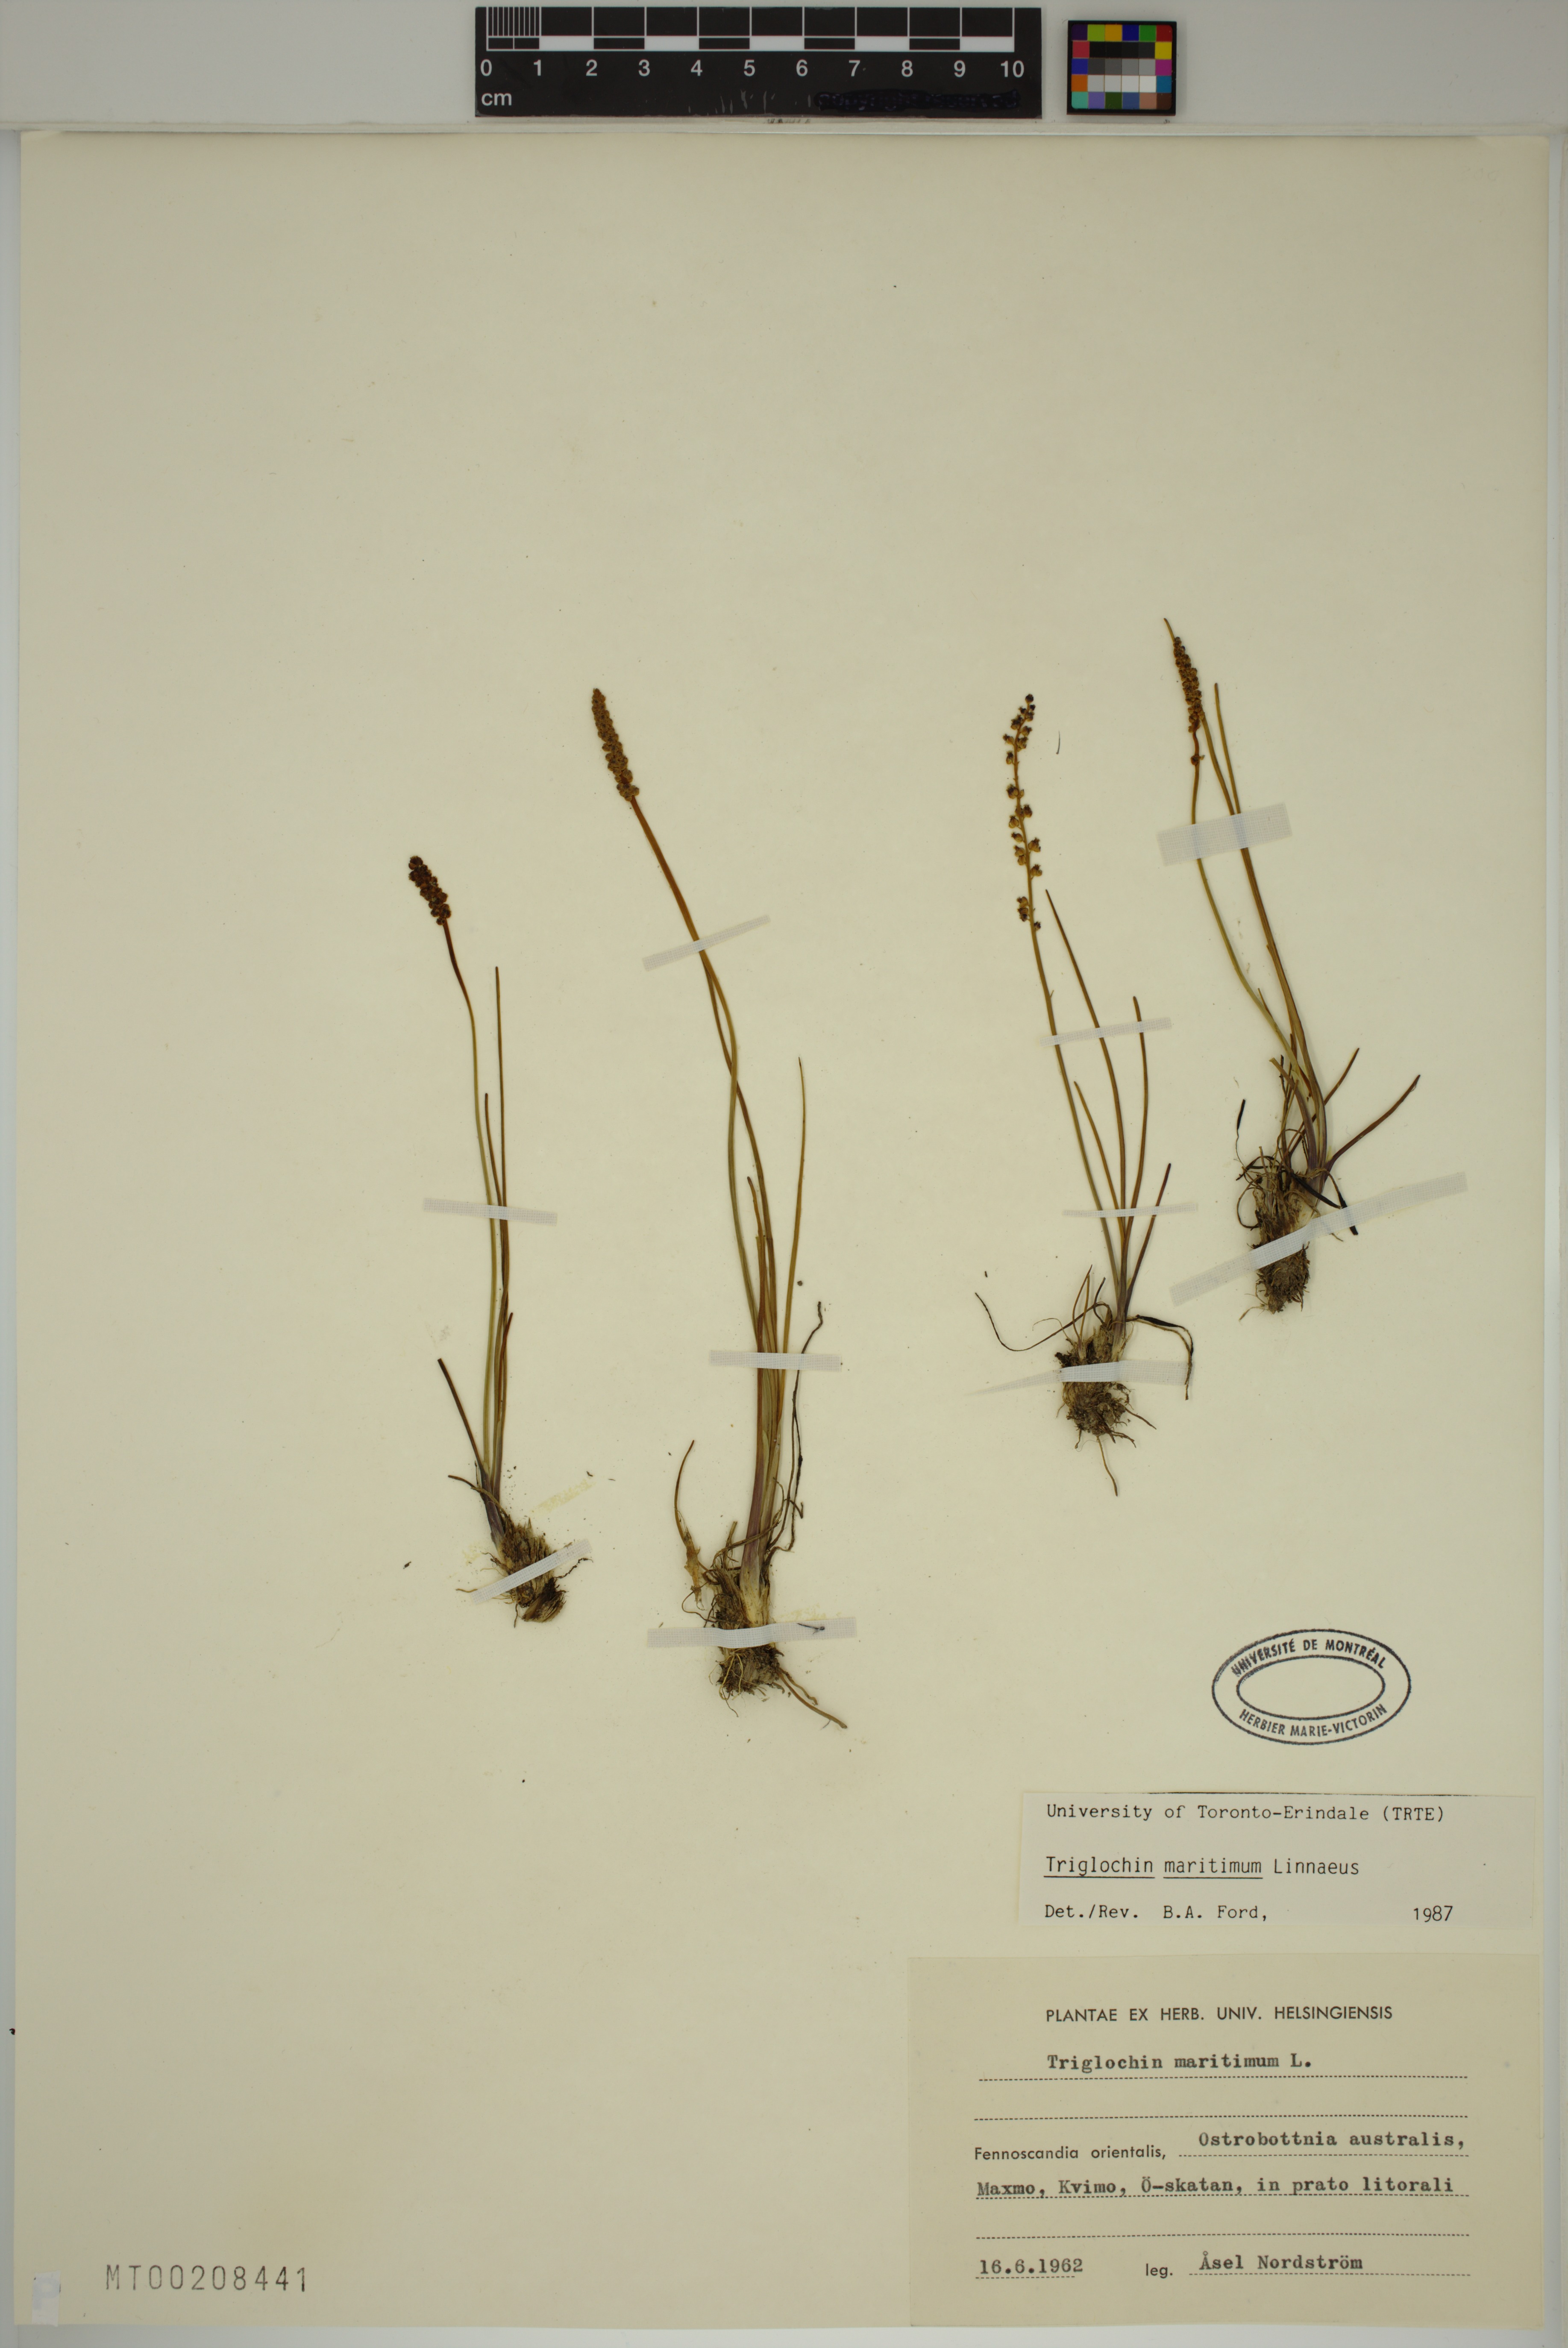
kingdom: Plantae
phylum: Tracheophyta
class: Liliopsida
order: Alismatales
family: Juncaginaceae
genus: Triglochin
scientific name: Triglochin maritima
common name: Sea arrowgrass
